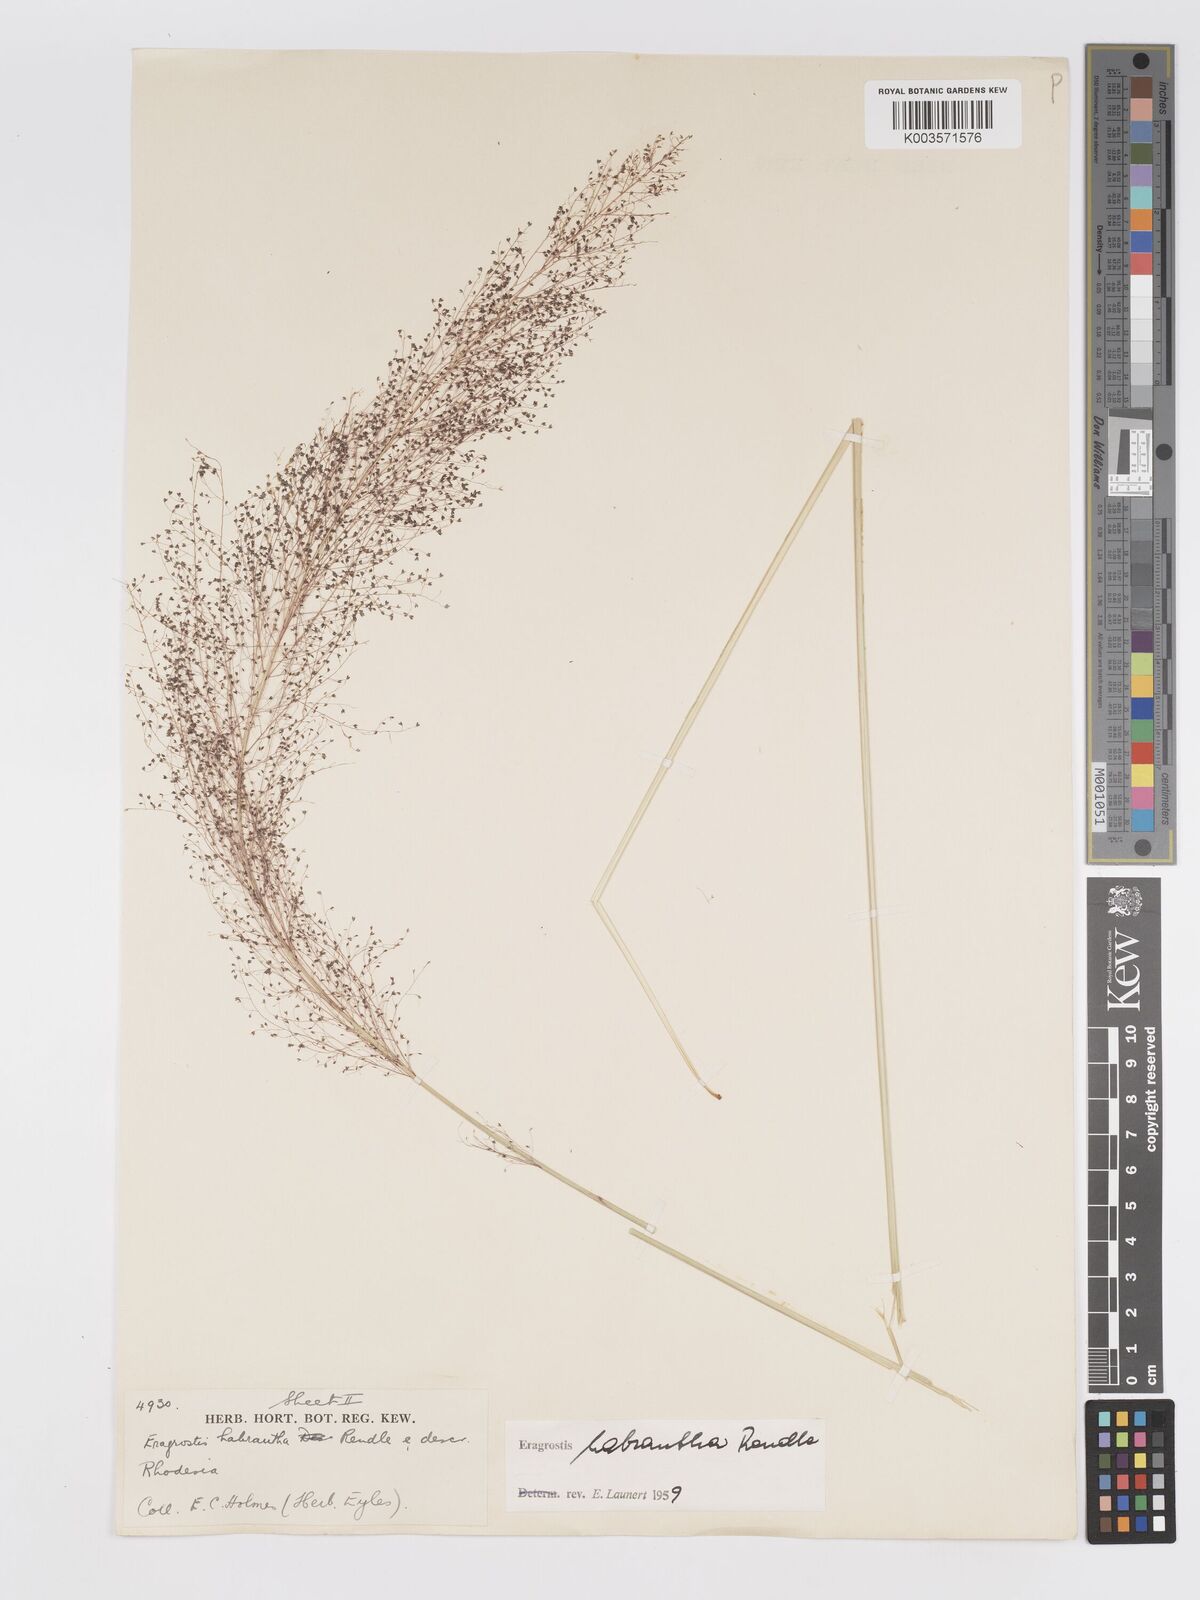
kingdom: Plantae
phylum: Tracheophyta
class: Liliopsida
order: Poales
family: Poaceae
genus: Eragrostis
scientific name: Eragrostis habrantha
